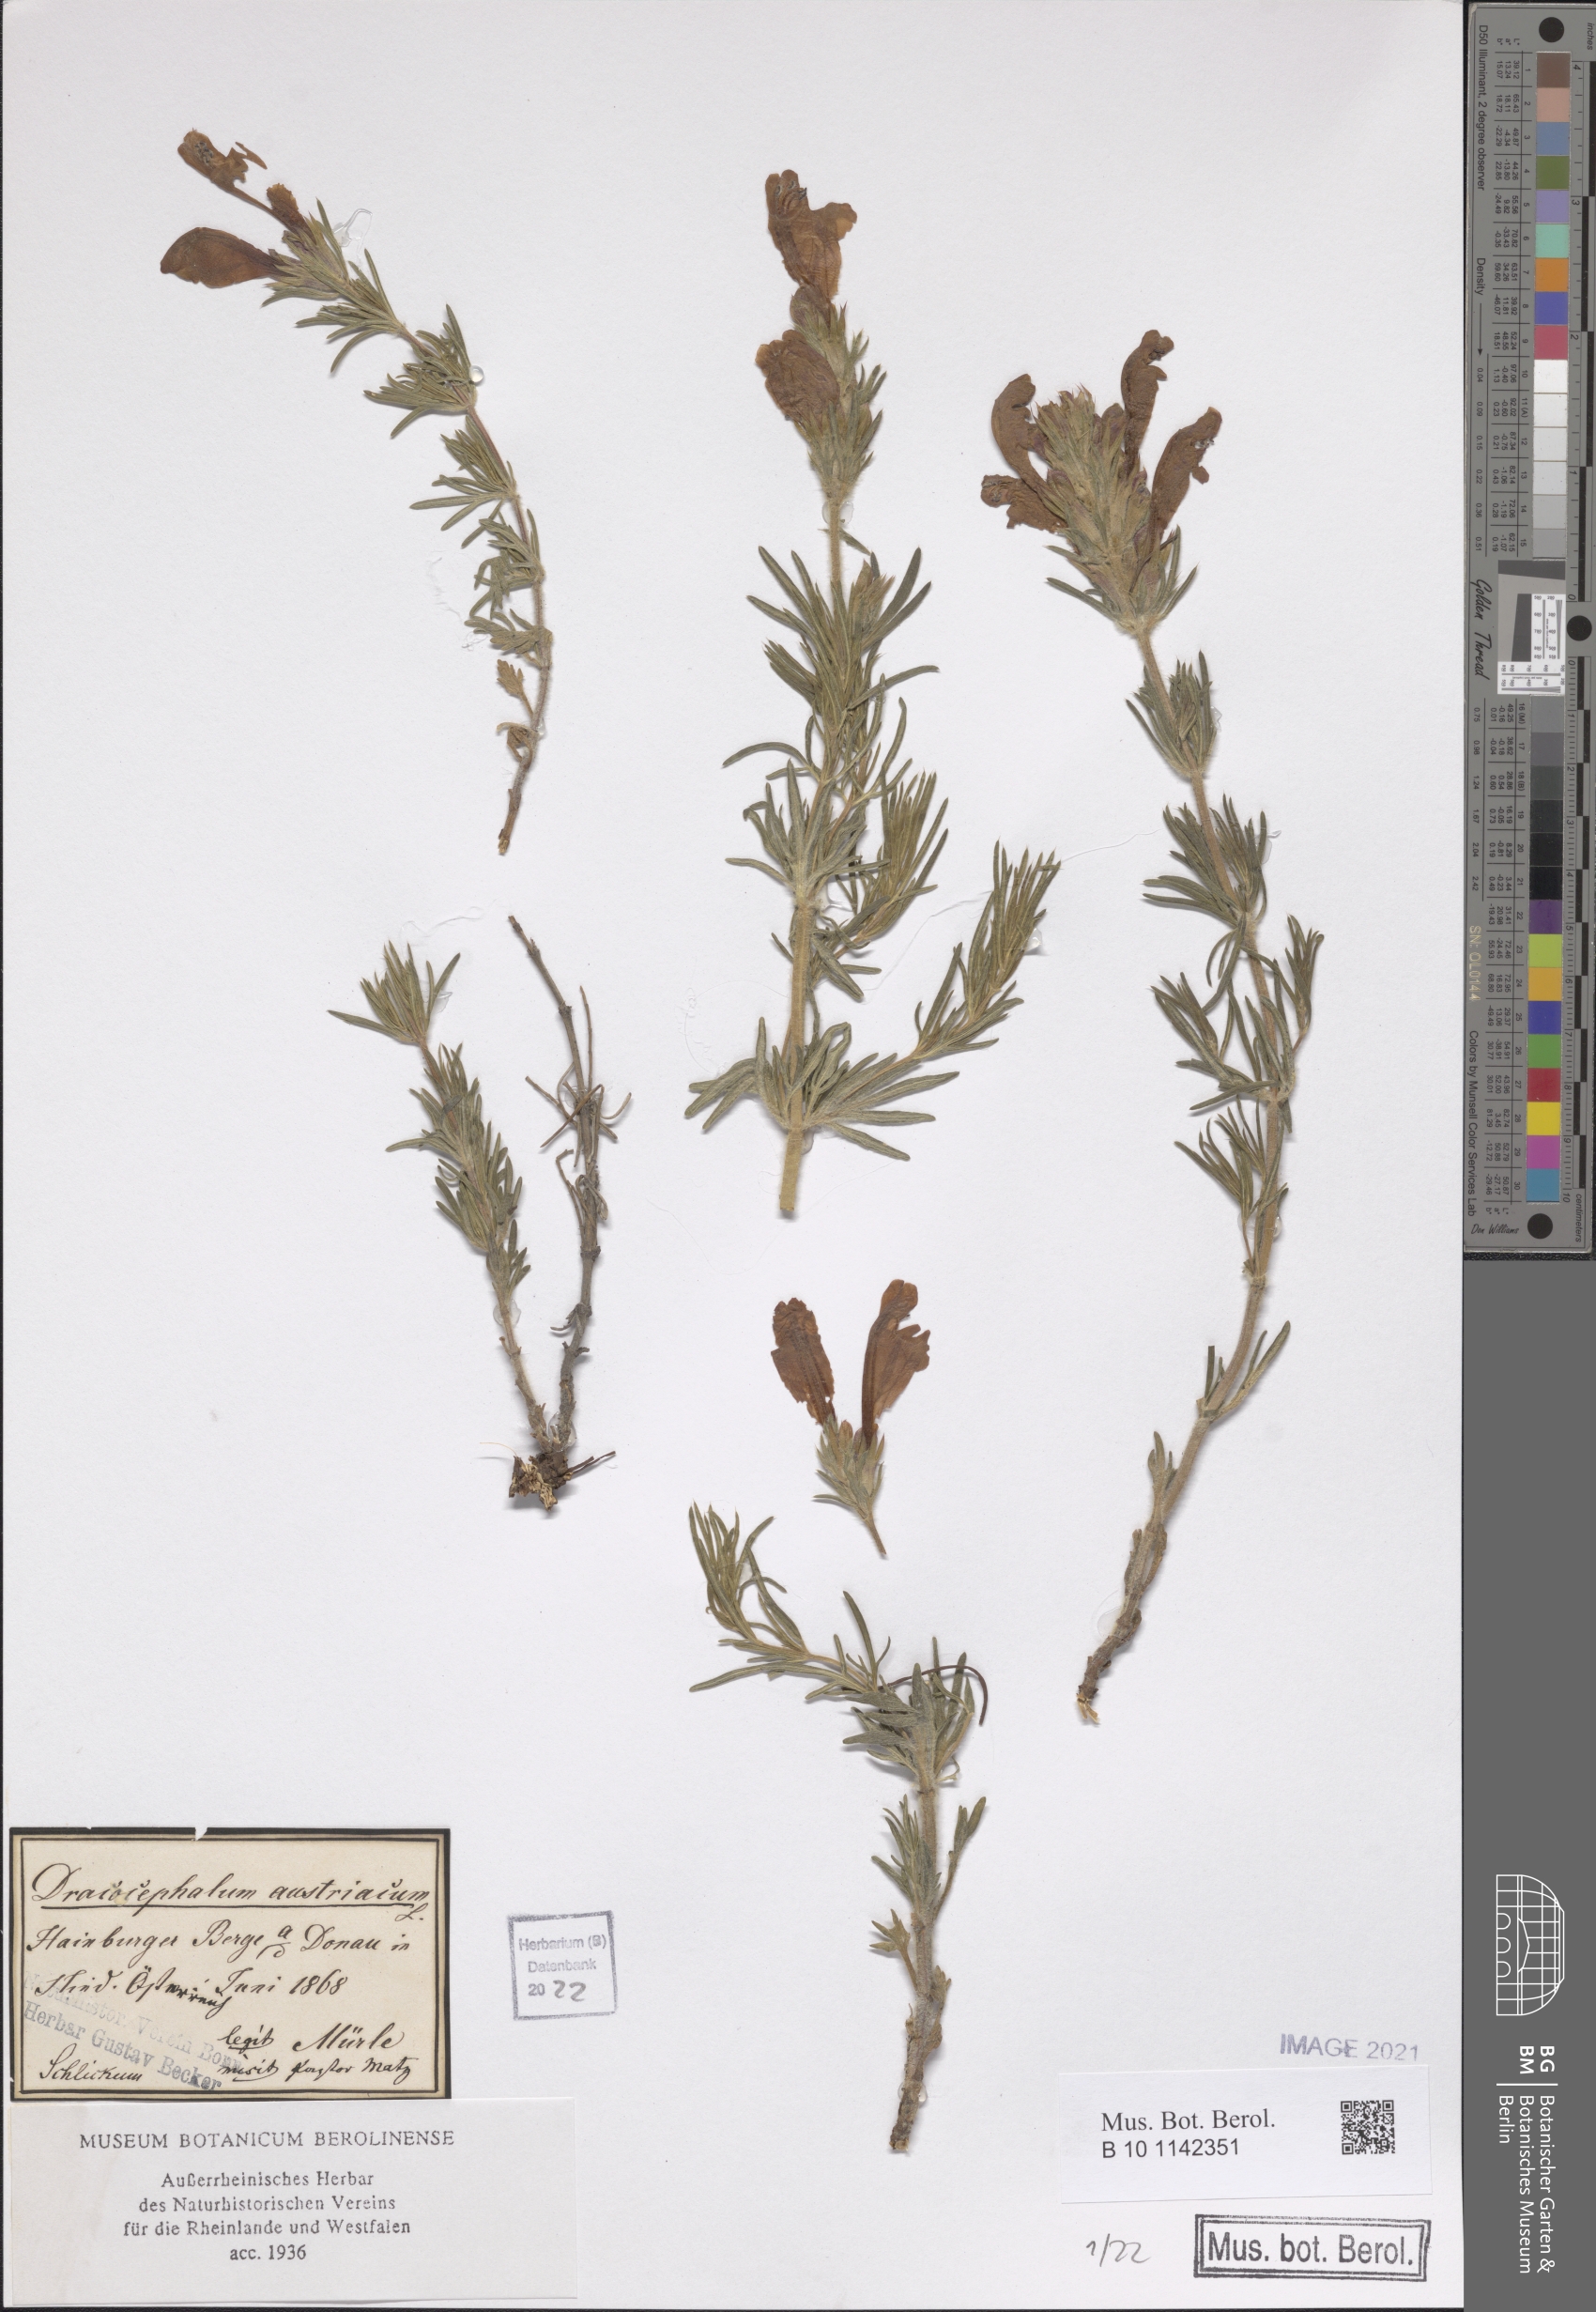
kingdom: Plantae
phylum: Tracheophyta
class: Magnoliopsida
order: Lamiales
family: Lamiaceae
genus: Dracocephalum
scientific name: Dracocephalum austriacum
